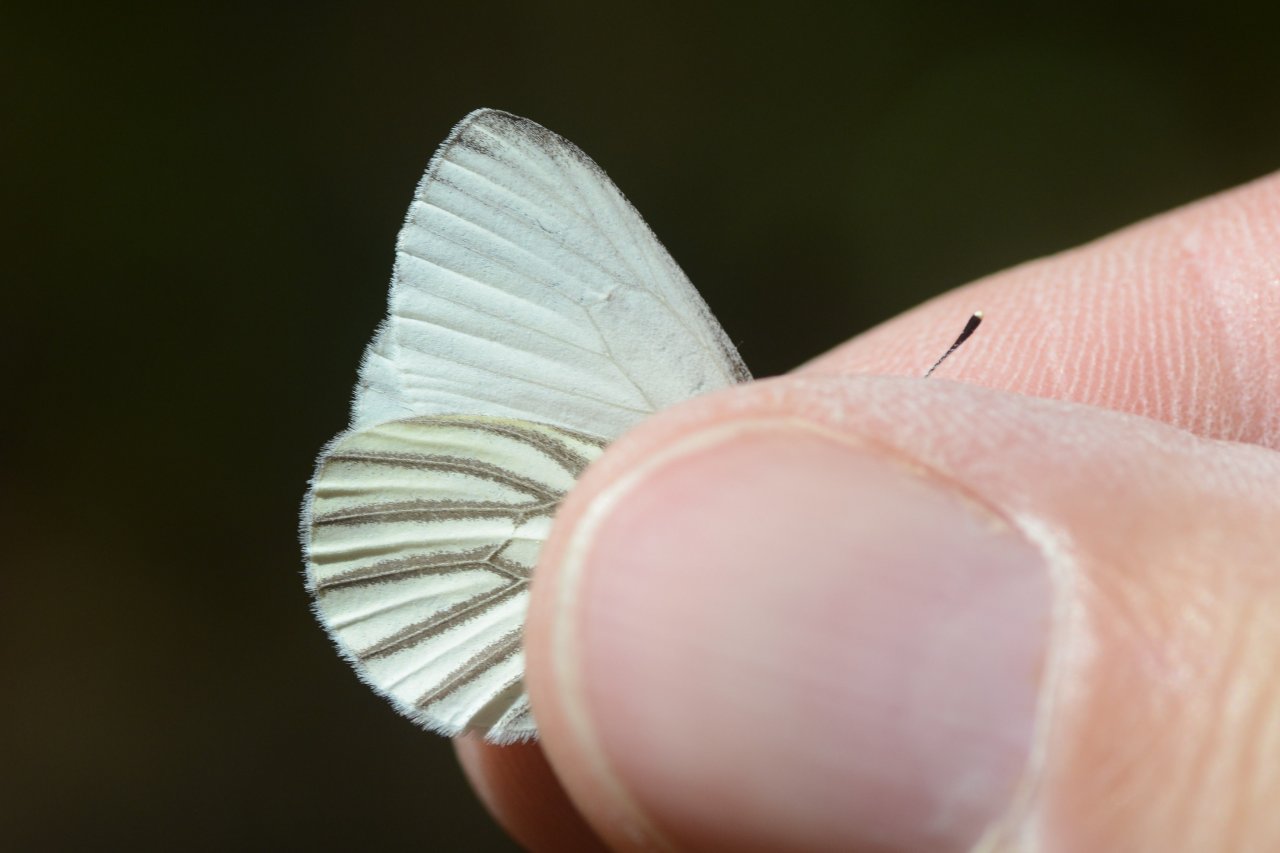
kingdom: Animalia
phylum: Arthropoda
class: Insecta
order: Lepidoptera
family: Pieridae
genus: Pieris
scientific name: Pieris oleracea
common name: Mustard White
